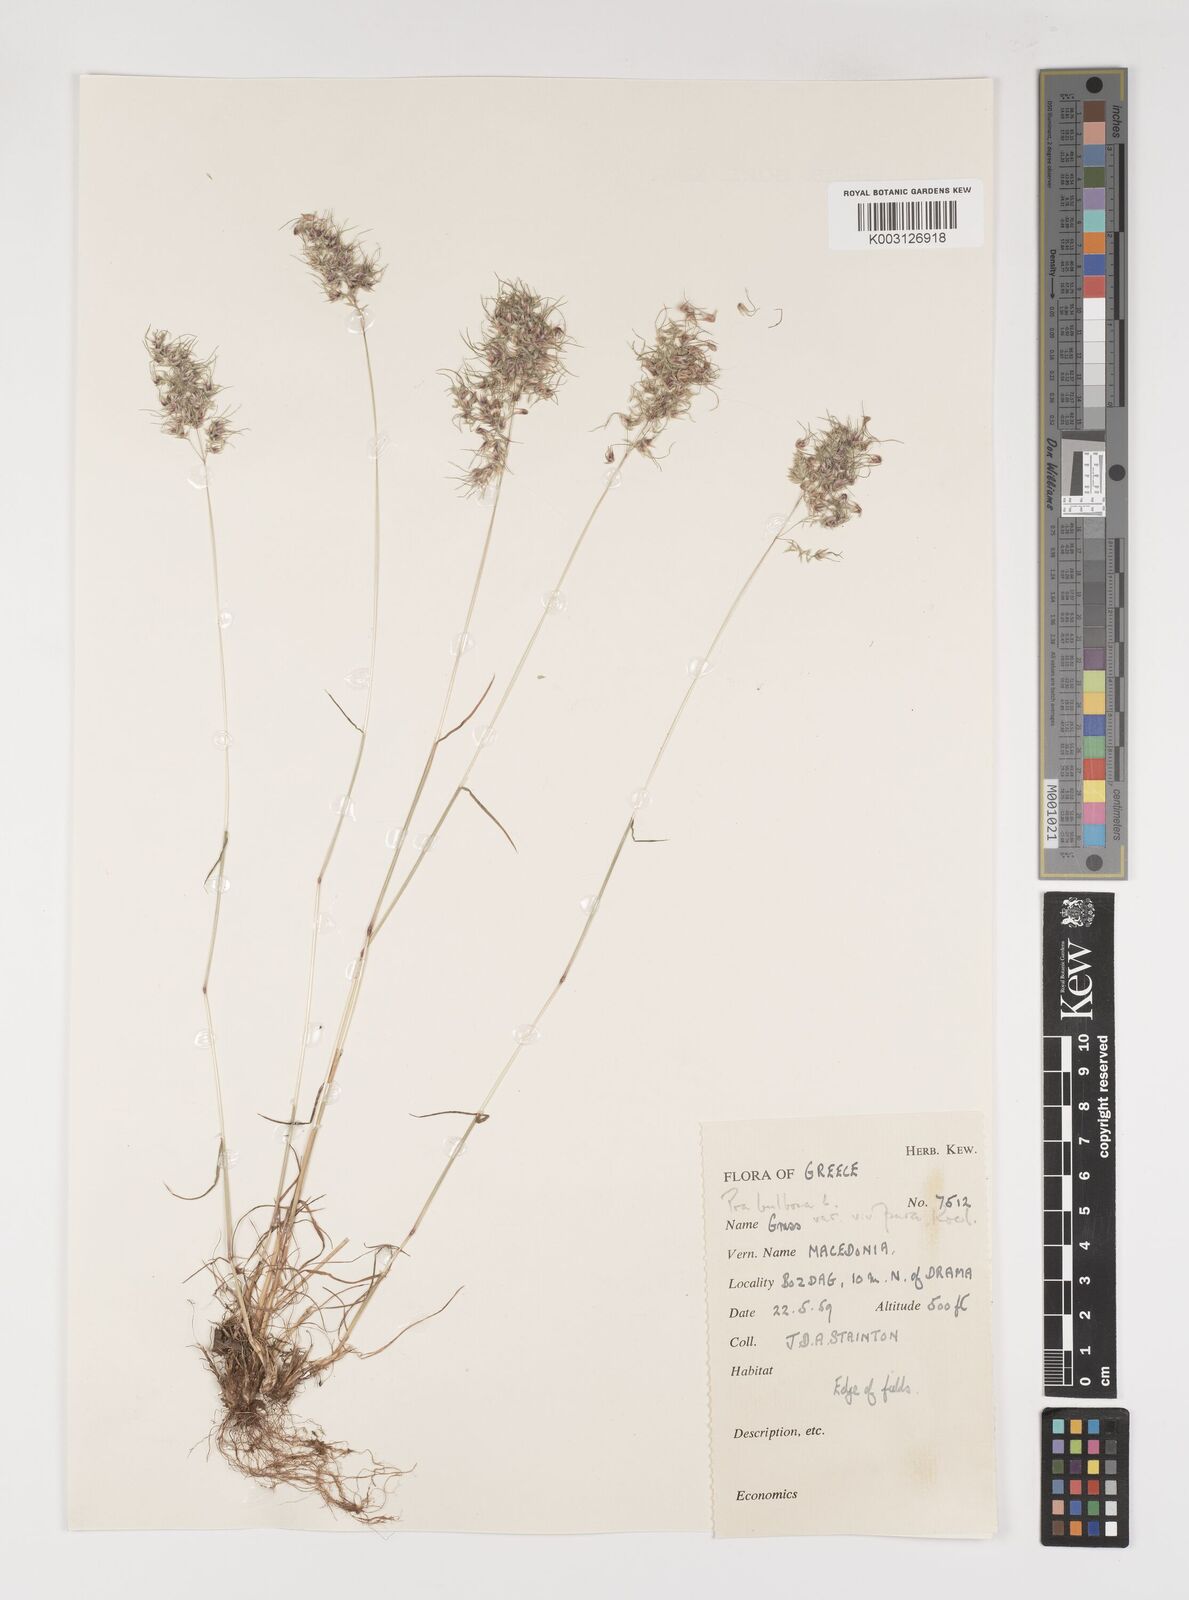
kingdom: Plantae
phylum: Tracheophyta
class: Liliopsida
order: Poales
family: Poaceae
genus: Poa
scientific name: Poa bulbosa
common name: Bulbous bluegrass
